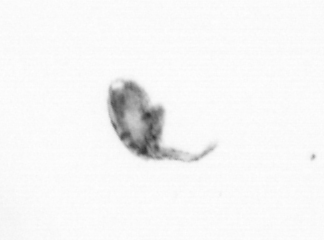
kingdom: Animalia
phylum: Arthropoda
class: Copepoda
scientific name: Copepoda
